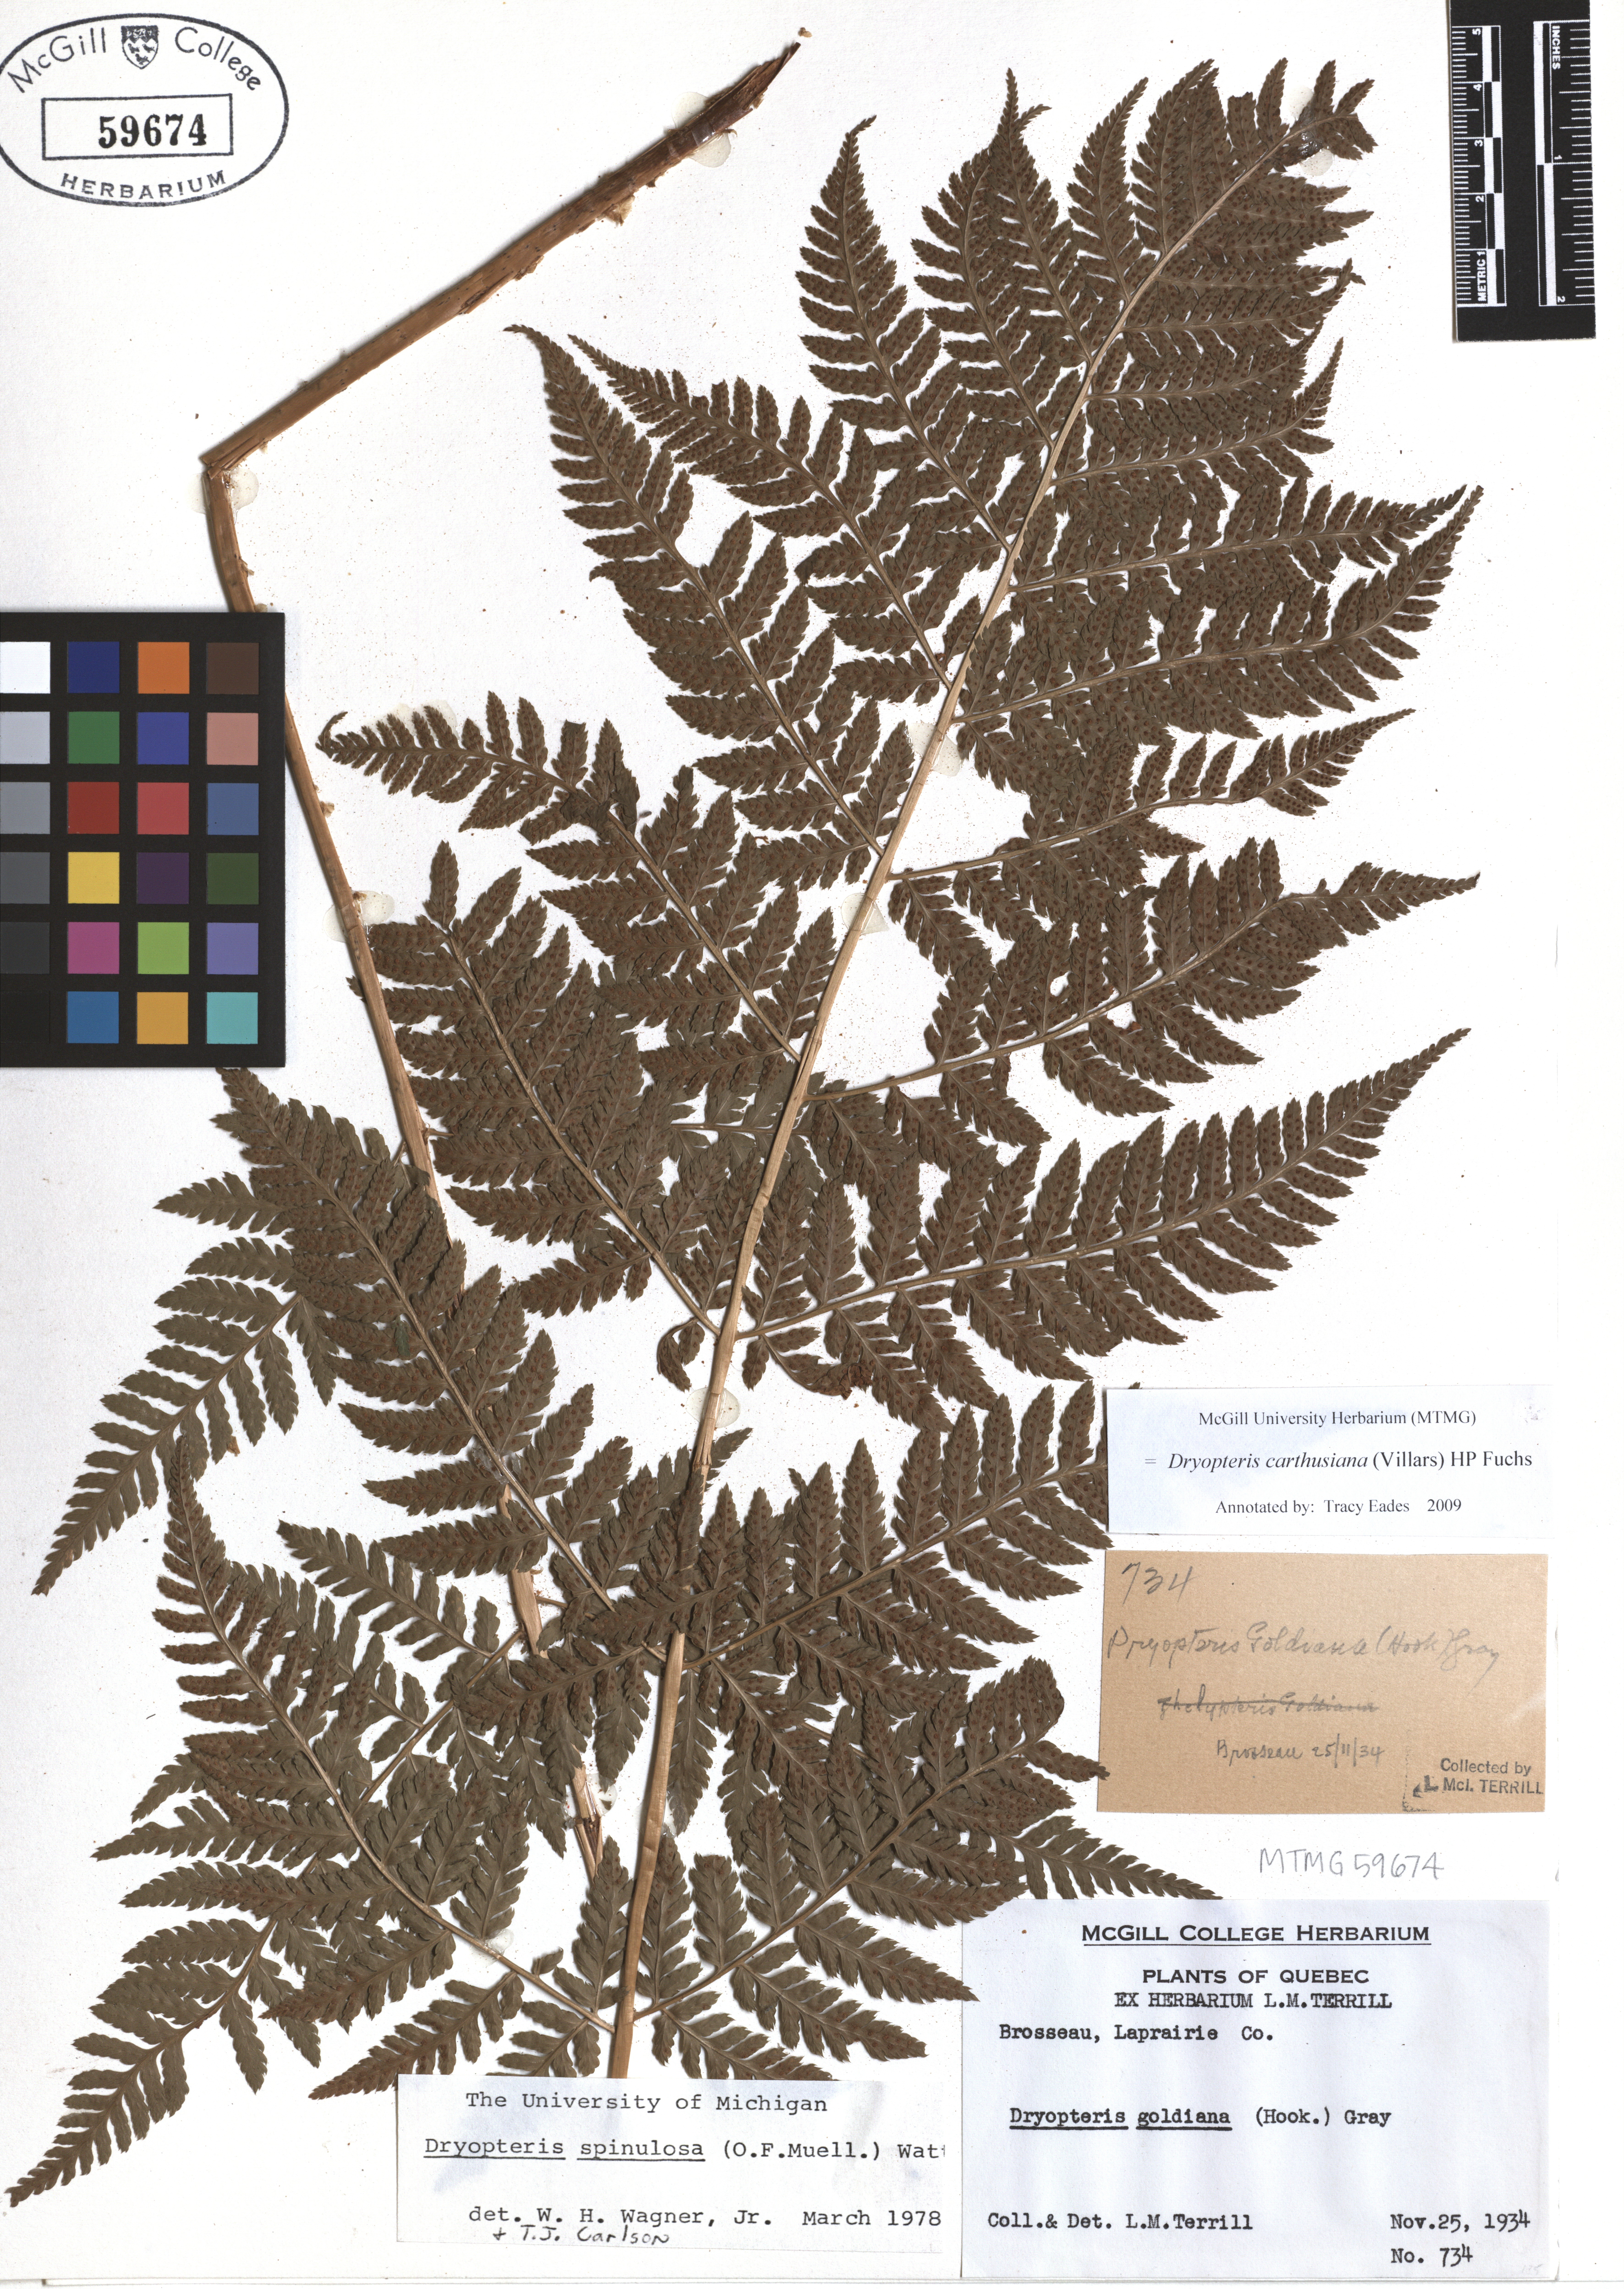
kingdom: Plantae
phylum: Tracheophyta
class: Polypodiopsida
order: Polypodiales
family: Dryopteridaceae
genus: Dryopteris
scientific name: Dryopteris carthusiana
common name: Narrow buckler-fern
